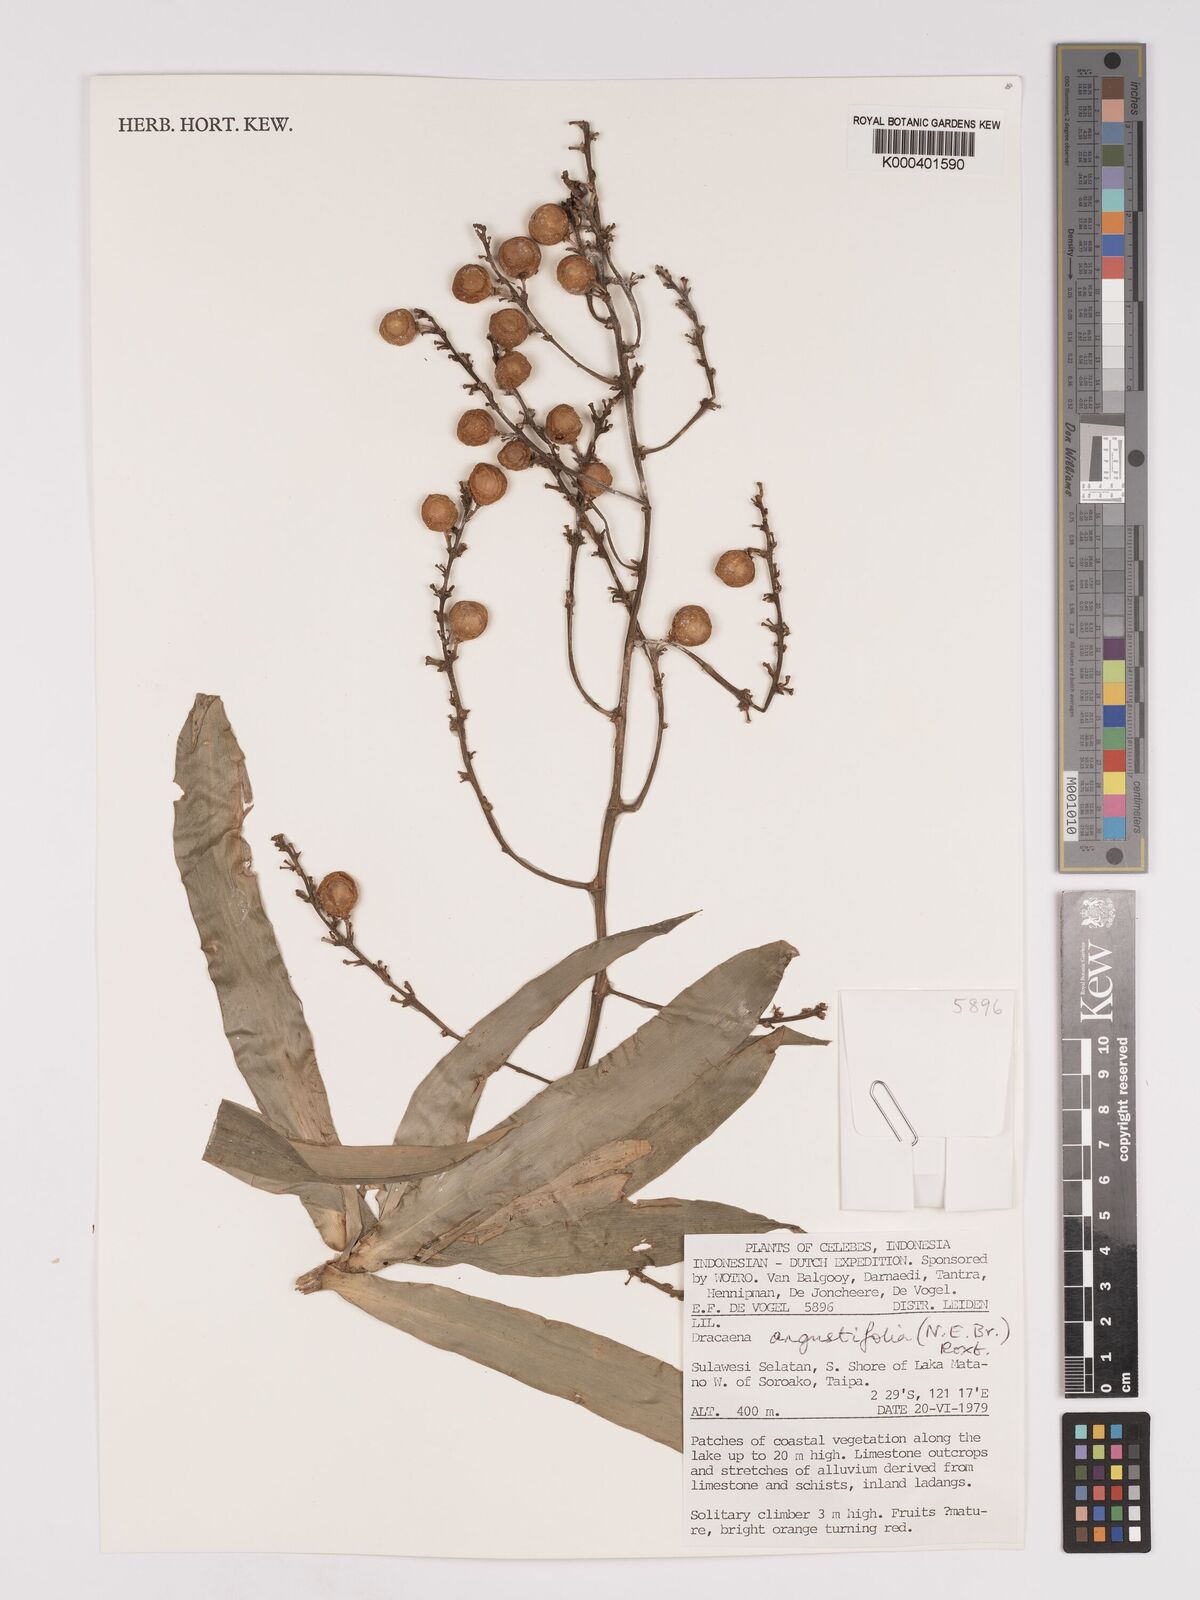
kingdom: Plantae
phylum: Tracheophyta
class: Liliopsida
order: Asparagales
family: Asparagaceae
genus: Dracaena
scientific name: Dracaena angustifolia
